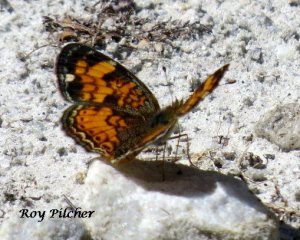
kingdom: Animalia
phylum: Arthropoda
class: Insecta
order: Lepidoptera
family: Nymphalidae
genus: Phyciodes
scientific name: Phyciodes tharos
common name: Northern Crescent
